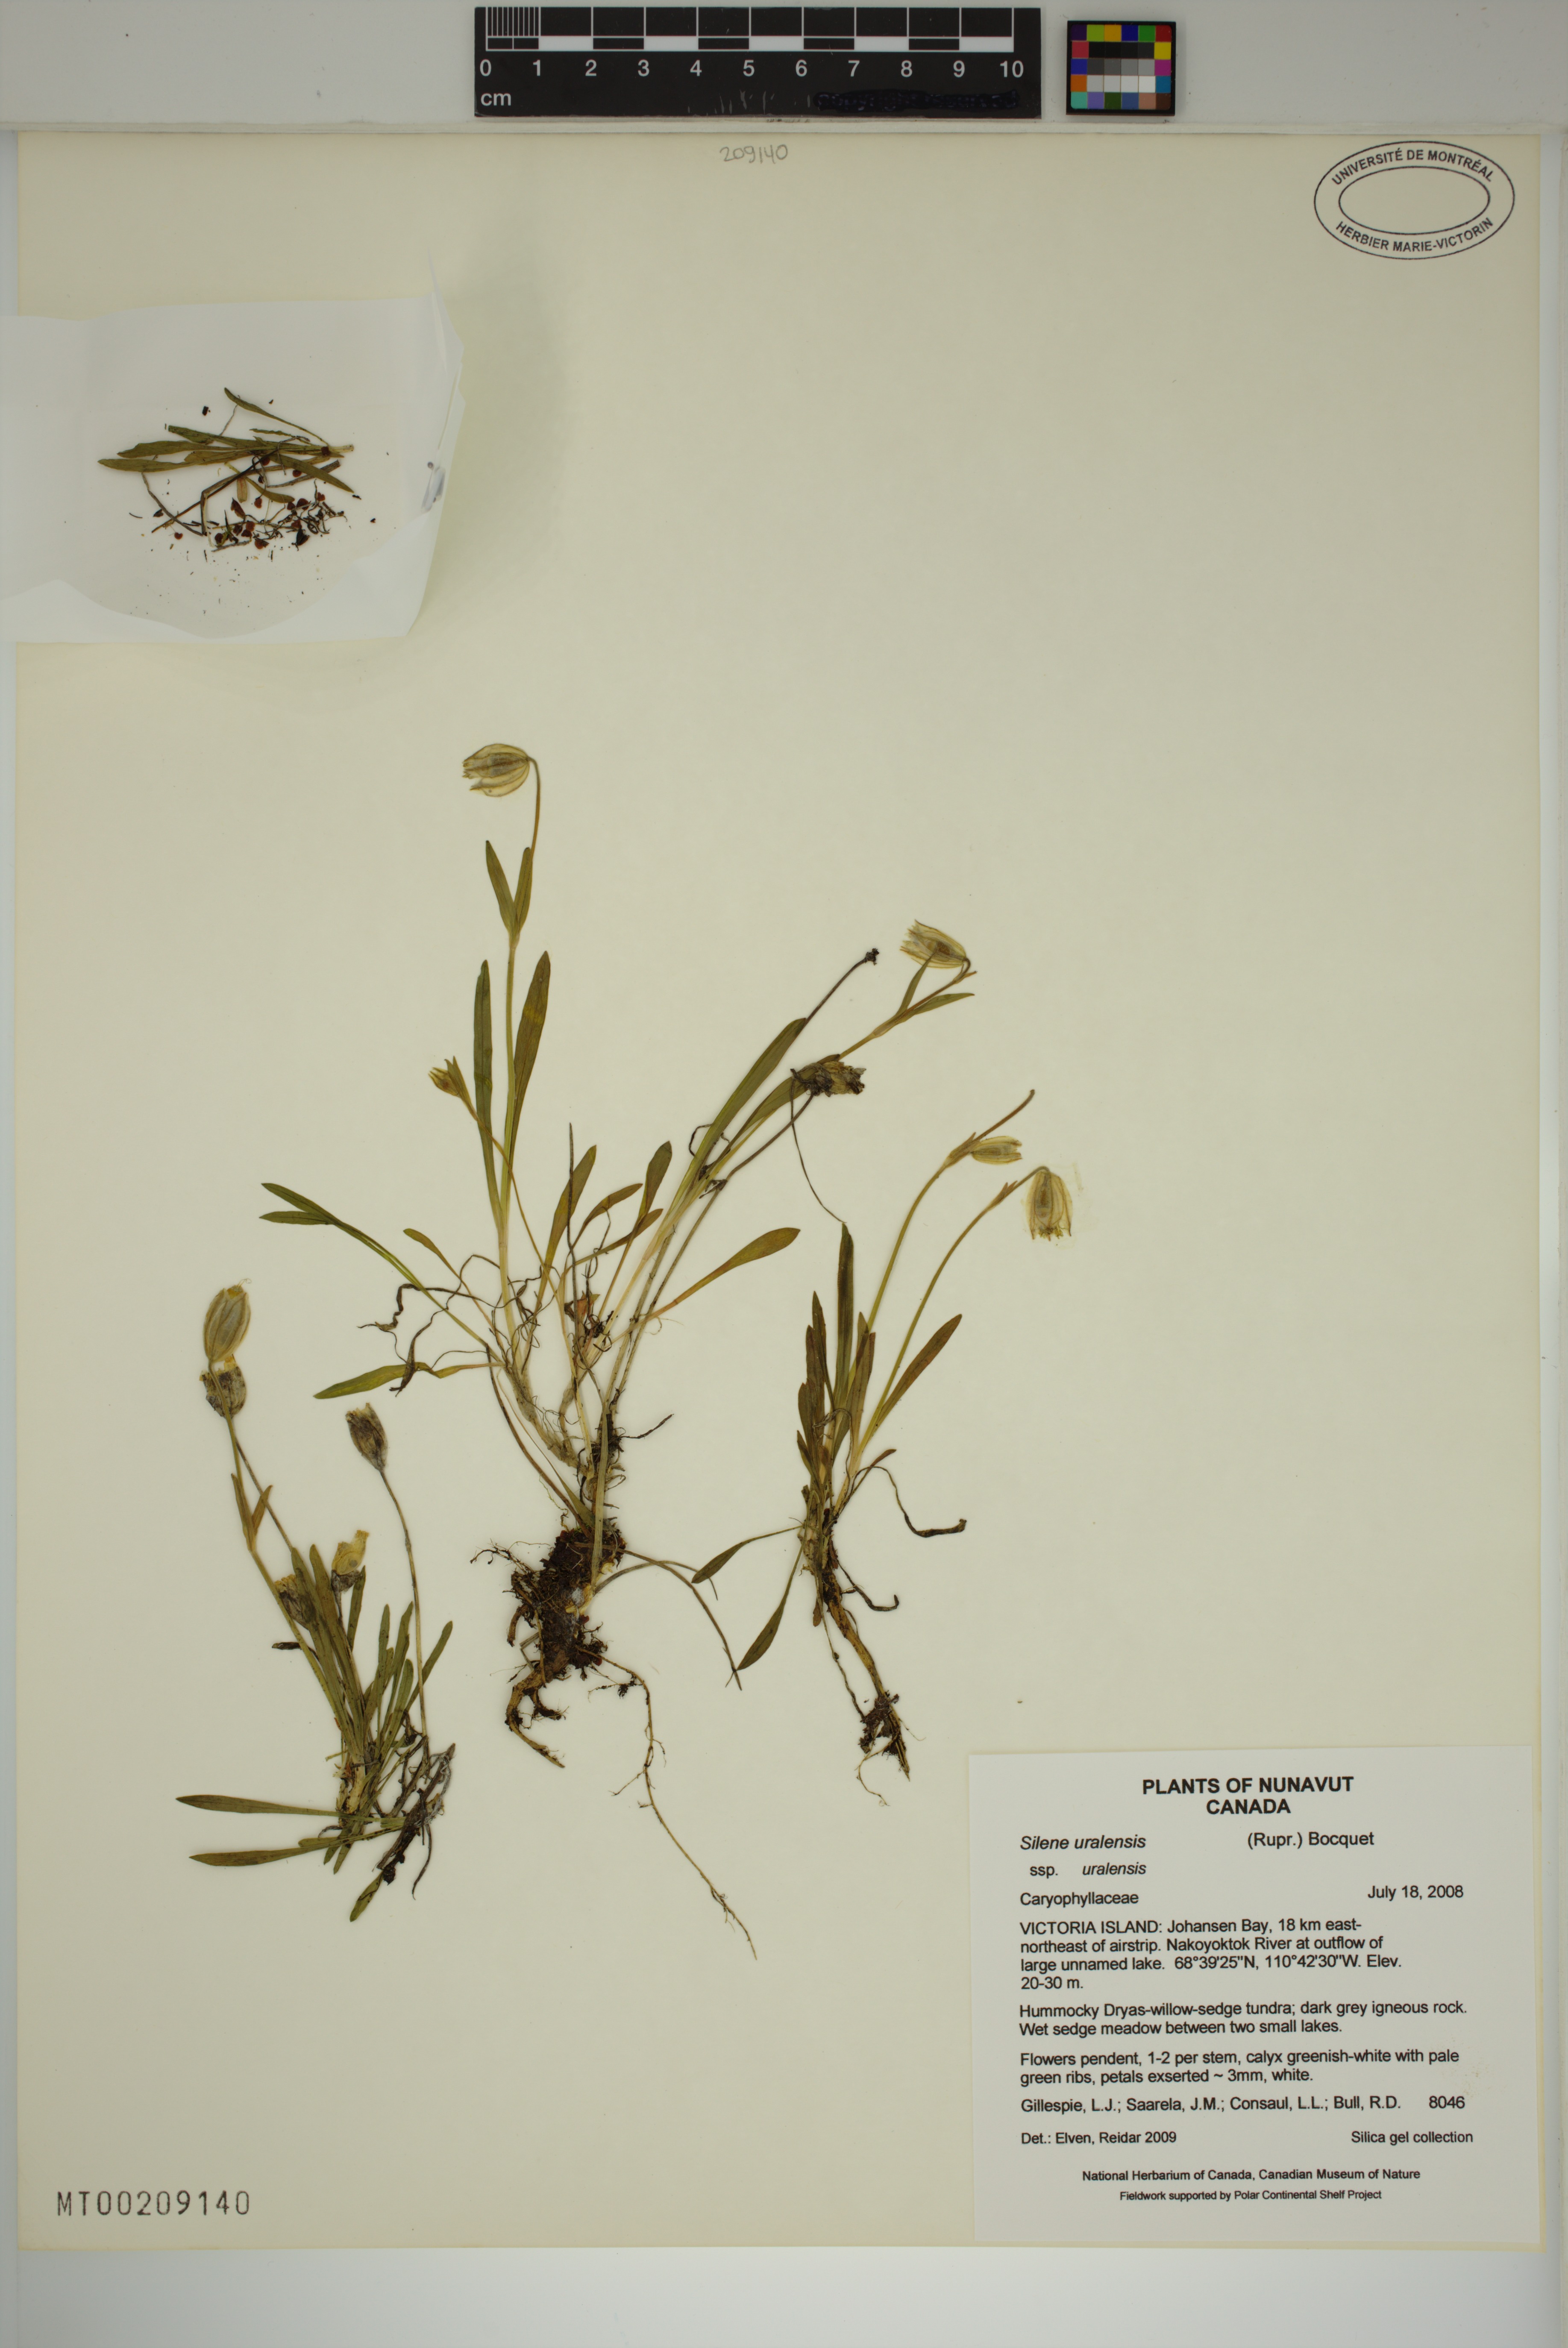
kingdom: Plantae
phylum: Tracheophyta
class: Magnoliopsida
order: Caryophyllales
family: Caryophyllaceae
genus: Silene
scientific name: Silene uralensis
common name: Nodding campion
